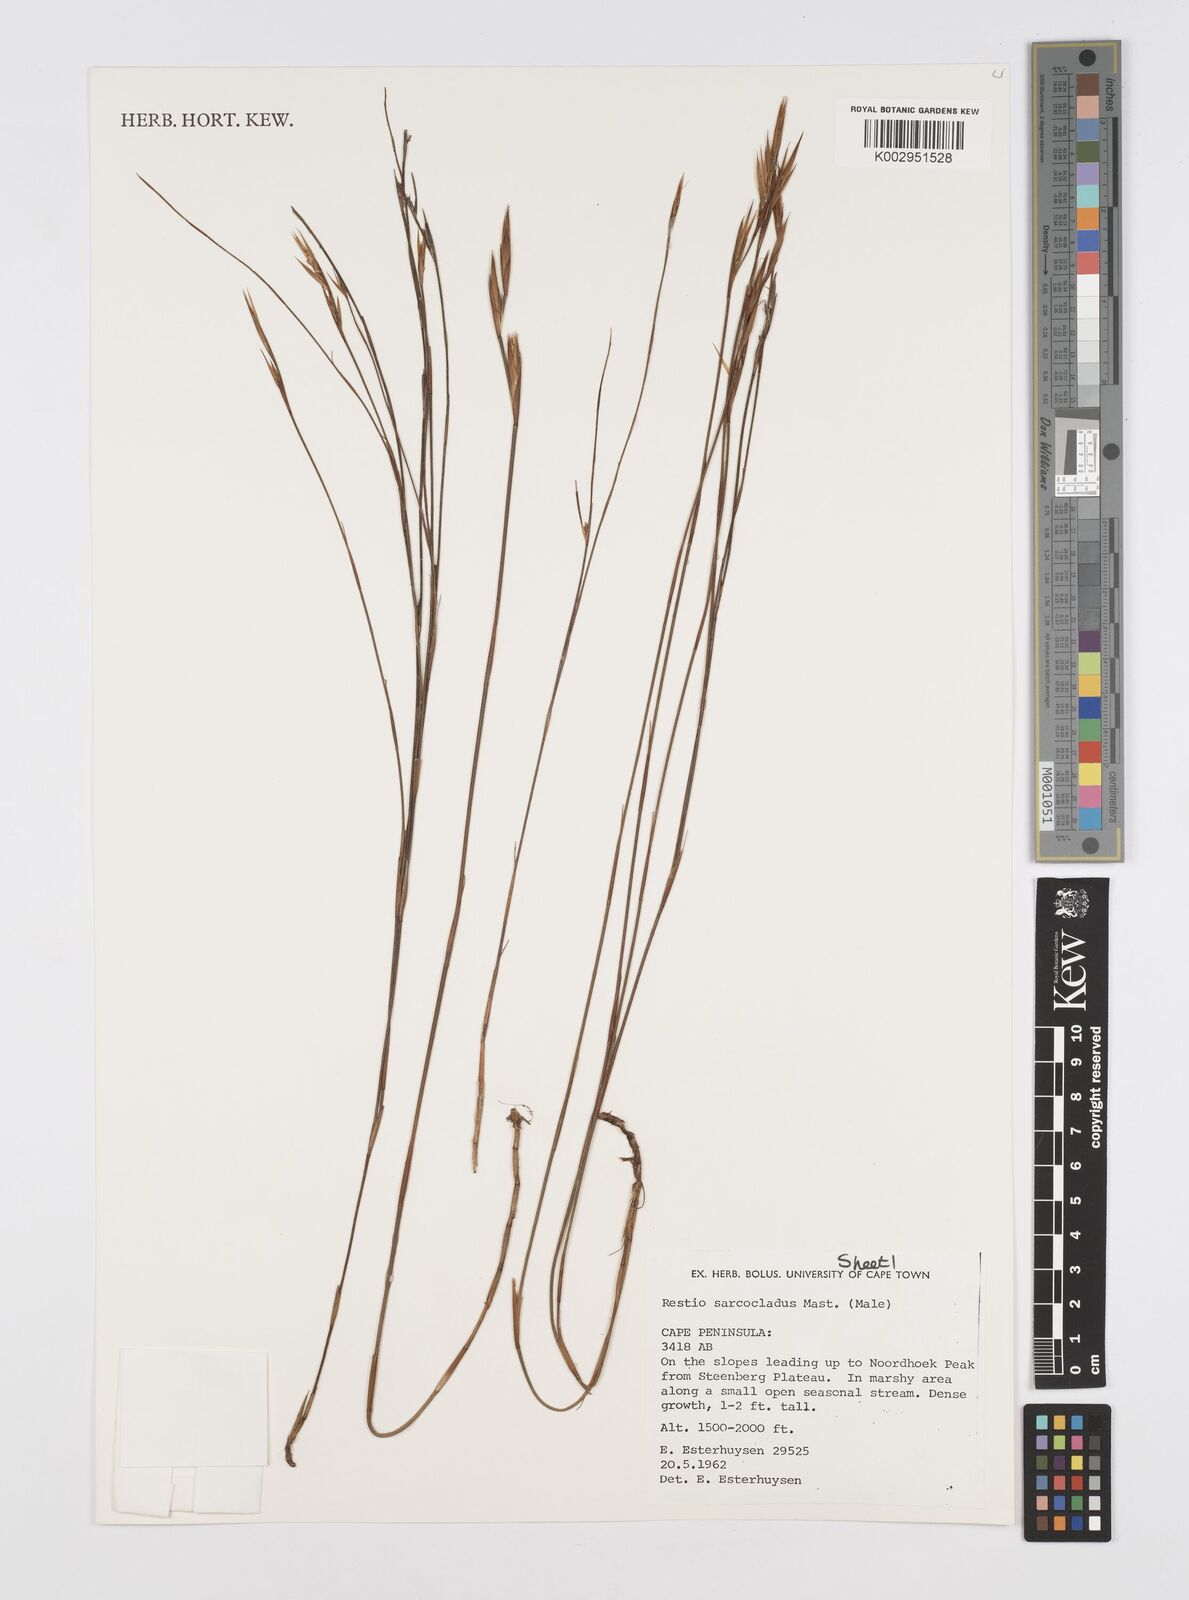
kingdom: Plantae
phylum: Tracheophyta
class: Liliopsida
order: Poales
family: Restionaceae
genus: Restio
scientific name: Restio saroclados
